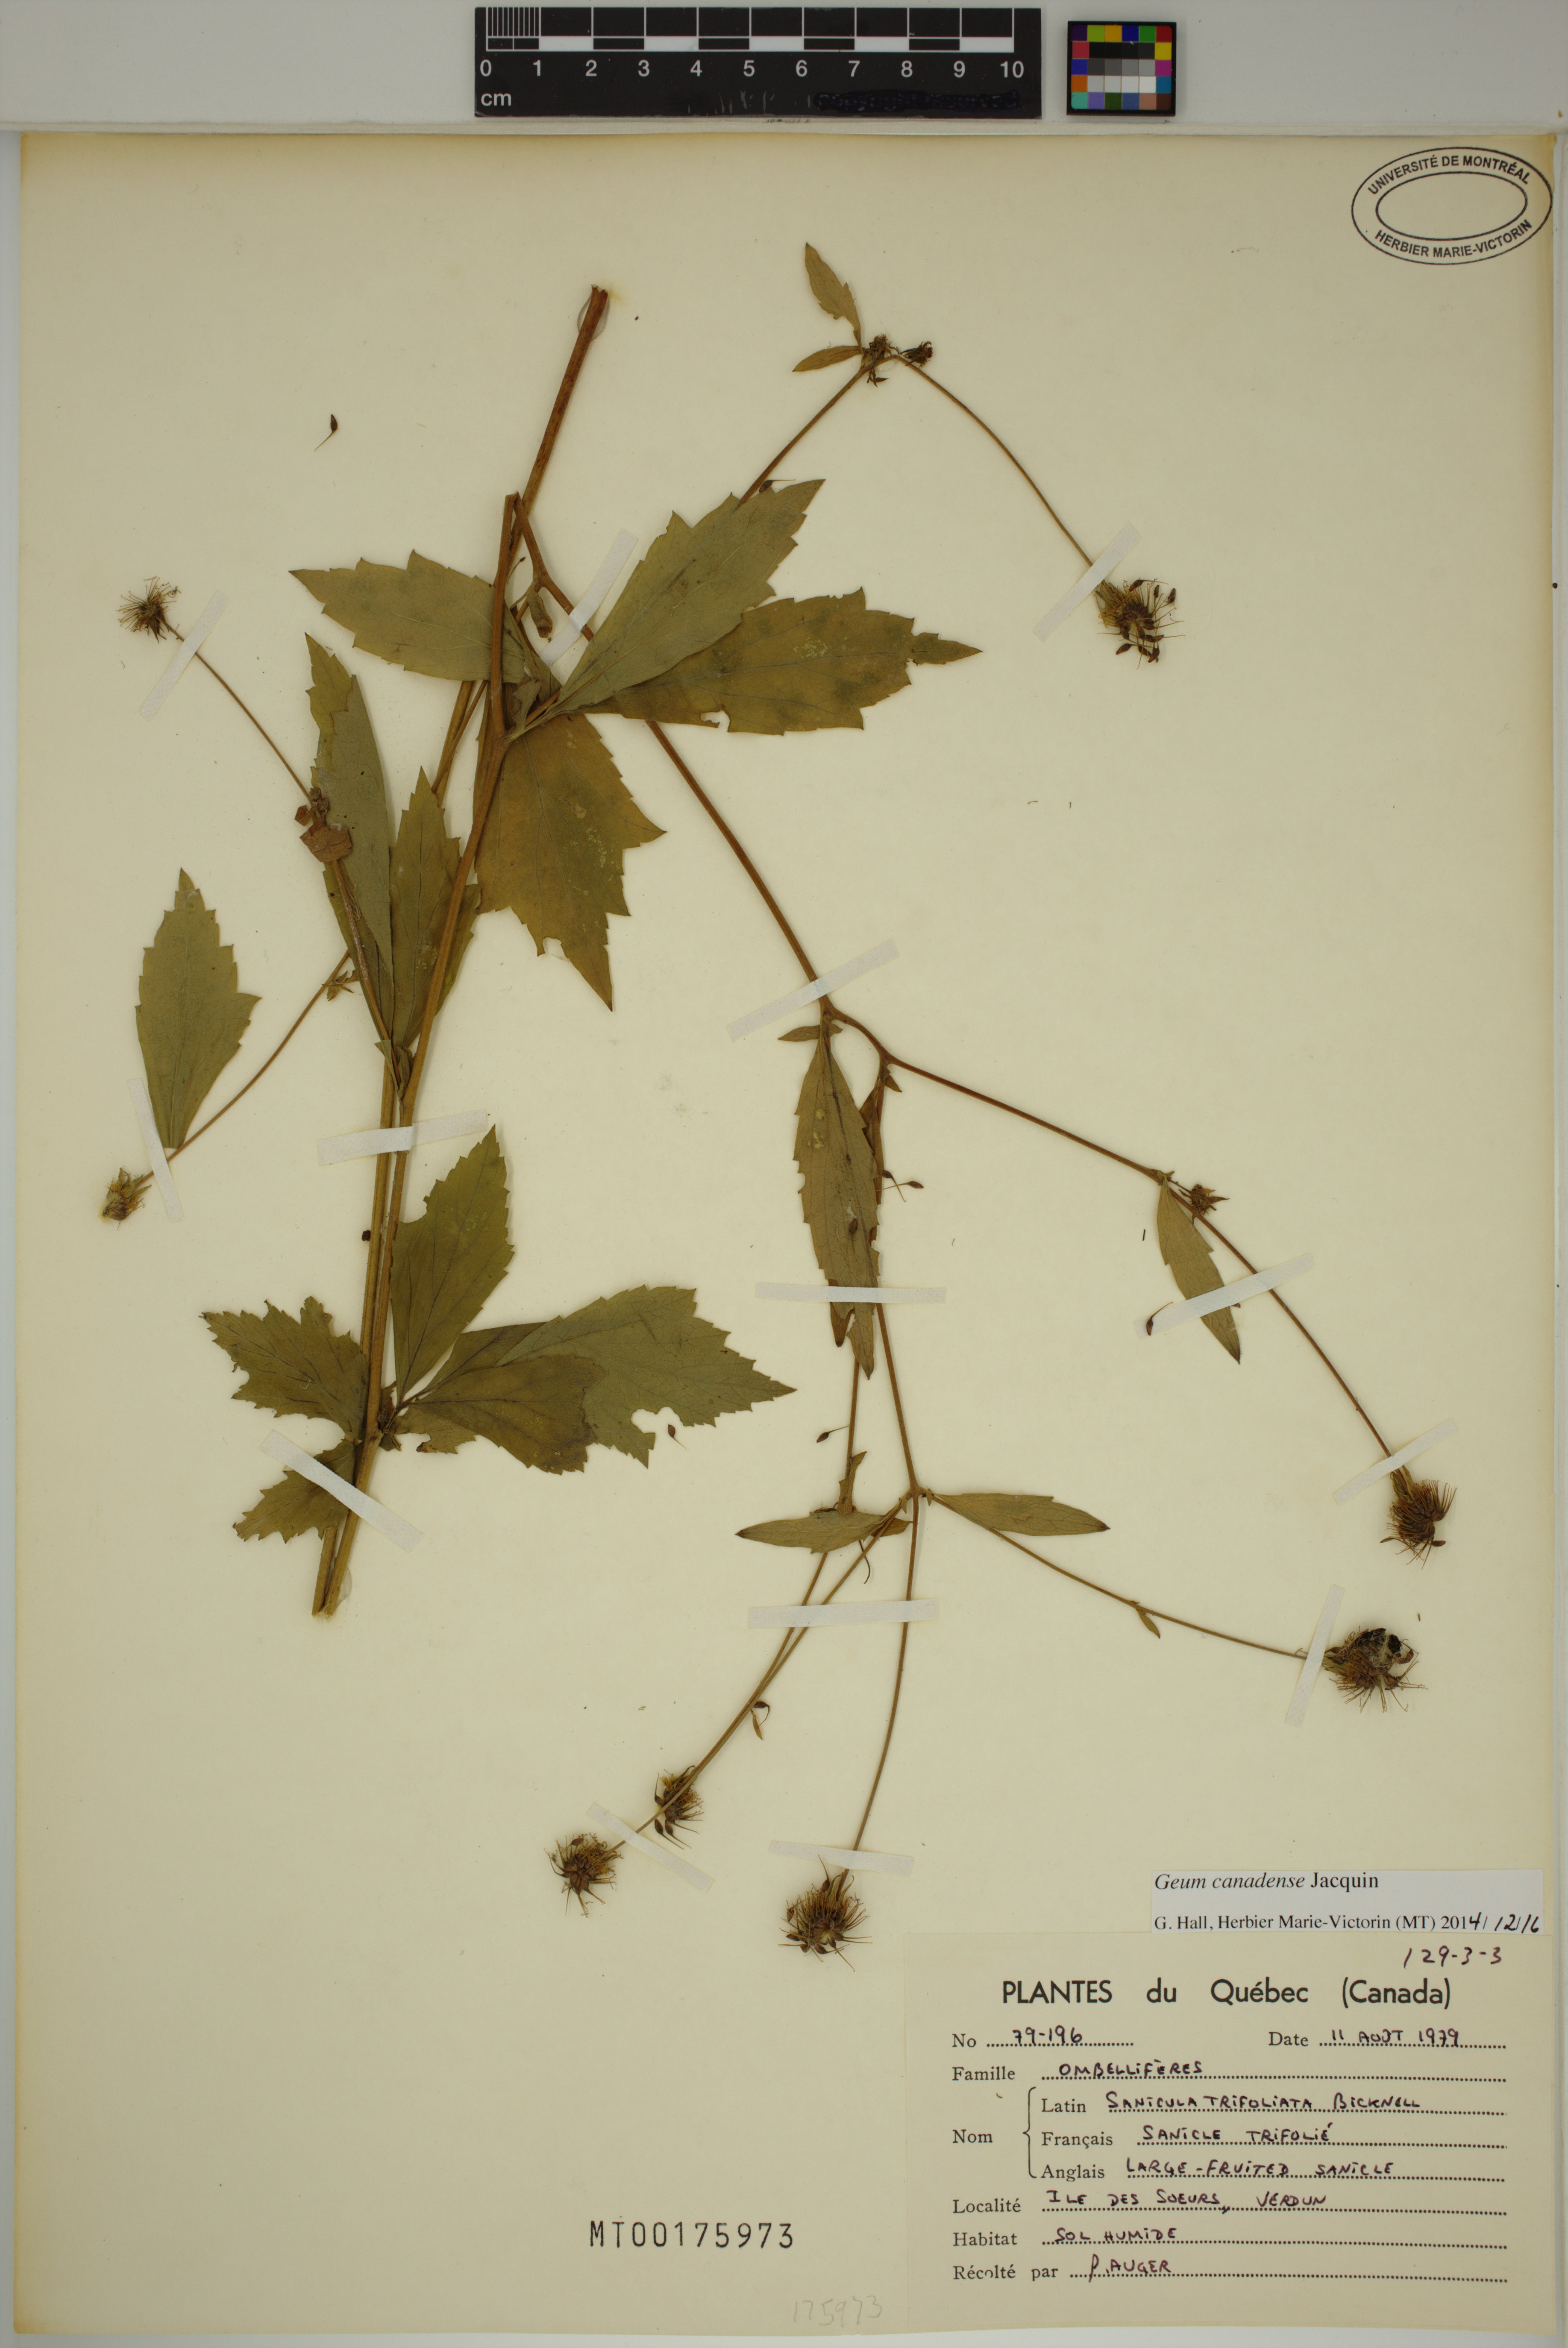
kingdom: Plantae
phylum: Tracheophyta
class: Magnoliopsida
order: Rosales
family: Rosaceae
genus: Geum
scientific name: Geum canadense
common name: White avens
